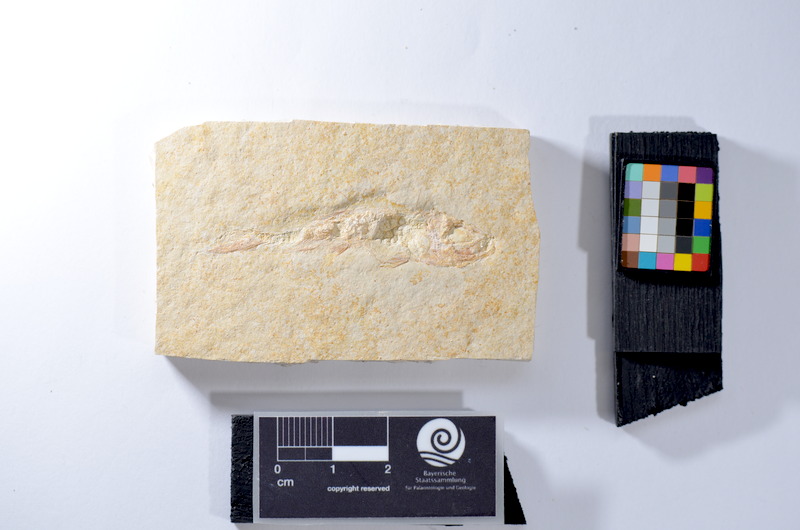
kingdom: Animalia
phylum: Chordata
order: Salmoniformes
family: Orthogonikleithridae
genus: Leptolepides
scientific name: Leptolepides
